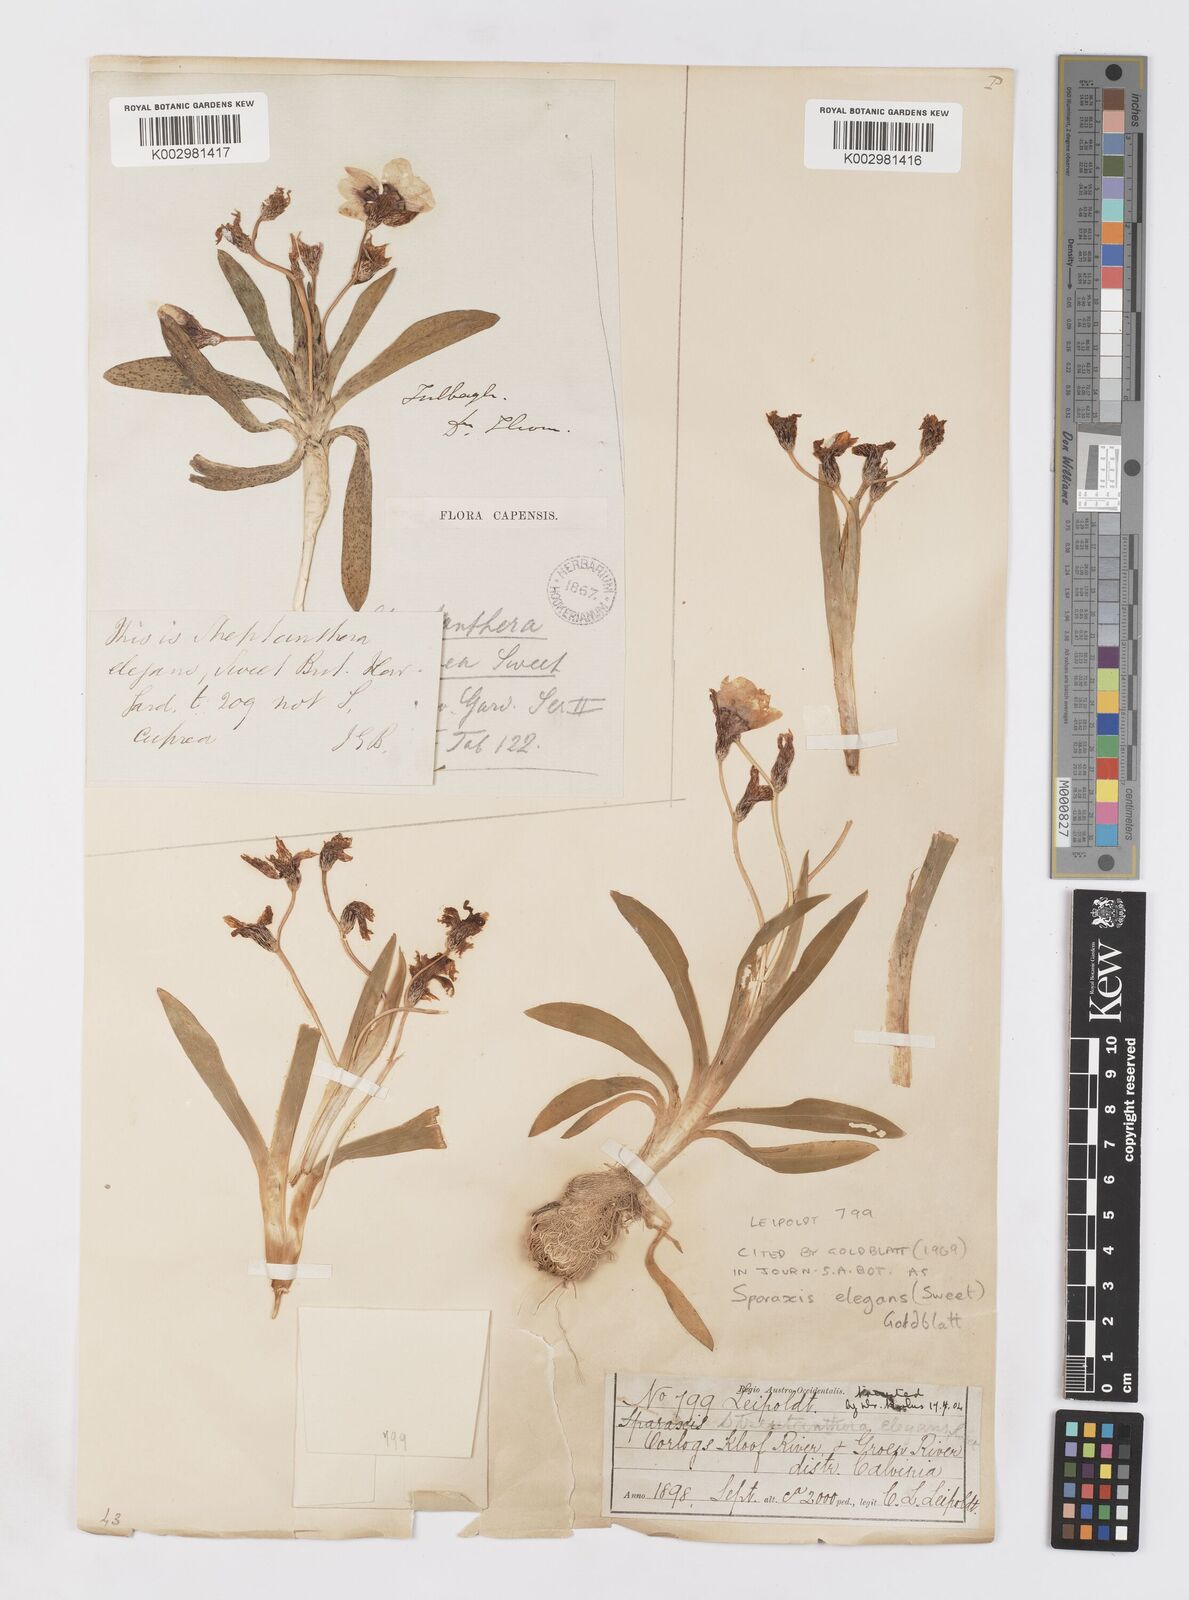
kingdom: Plantae
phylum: Tracheophyta
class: Liliopsida
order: Asparagales
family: Iridaceae
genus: Sparaxis
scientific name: Sparaxis elegans
